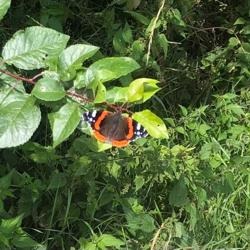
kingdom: Animalia
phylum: Arthropoda
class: Insecta
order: Lepidoptera
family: Nymphalidae
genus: Vanessa
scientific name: Vanessa atalanta
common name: Admiral
